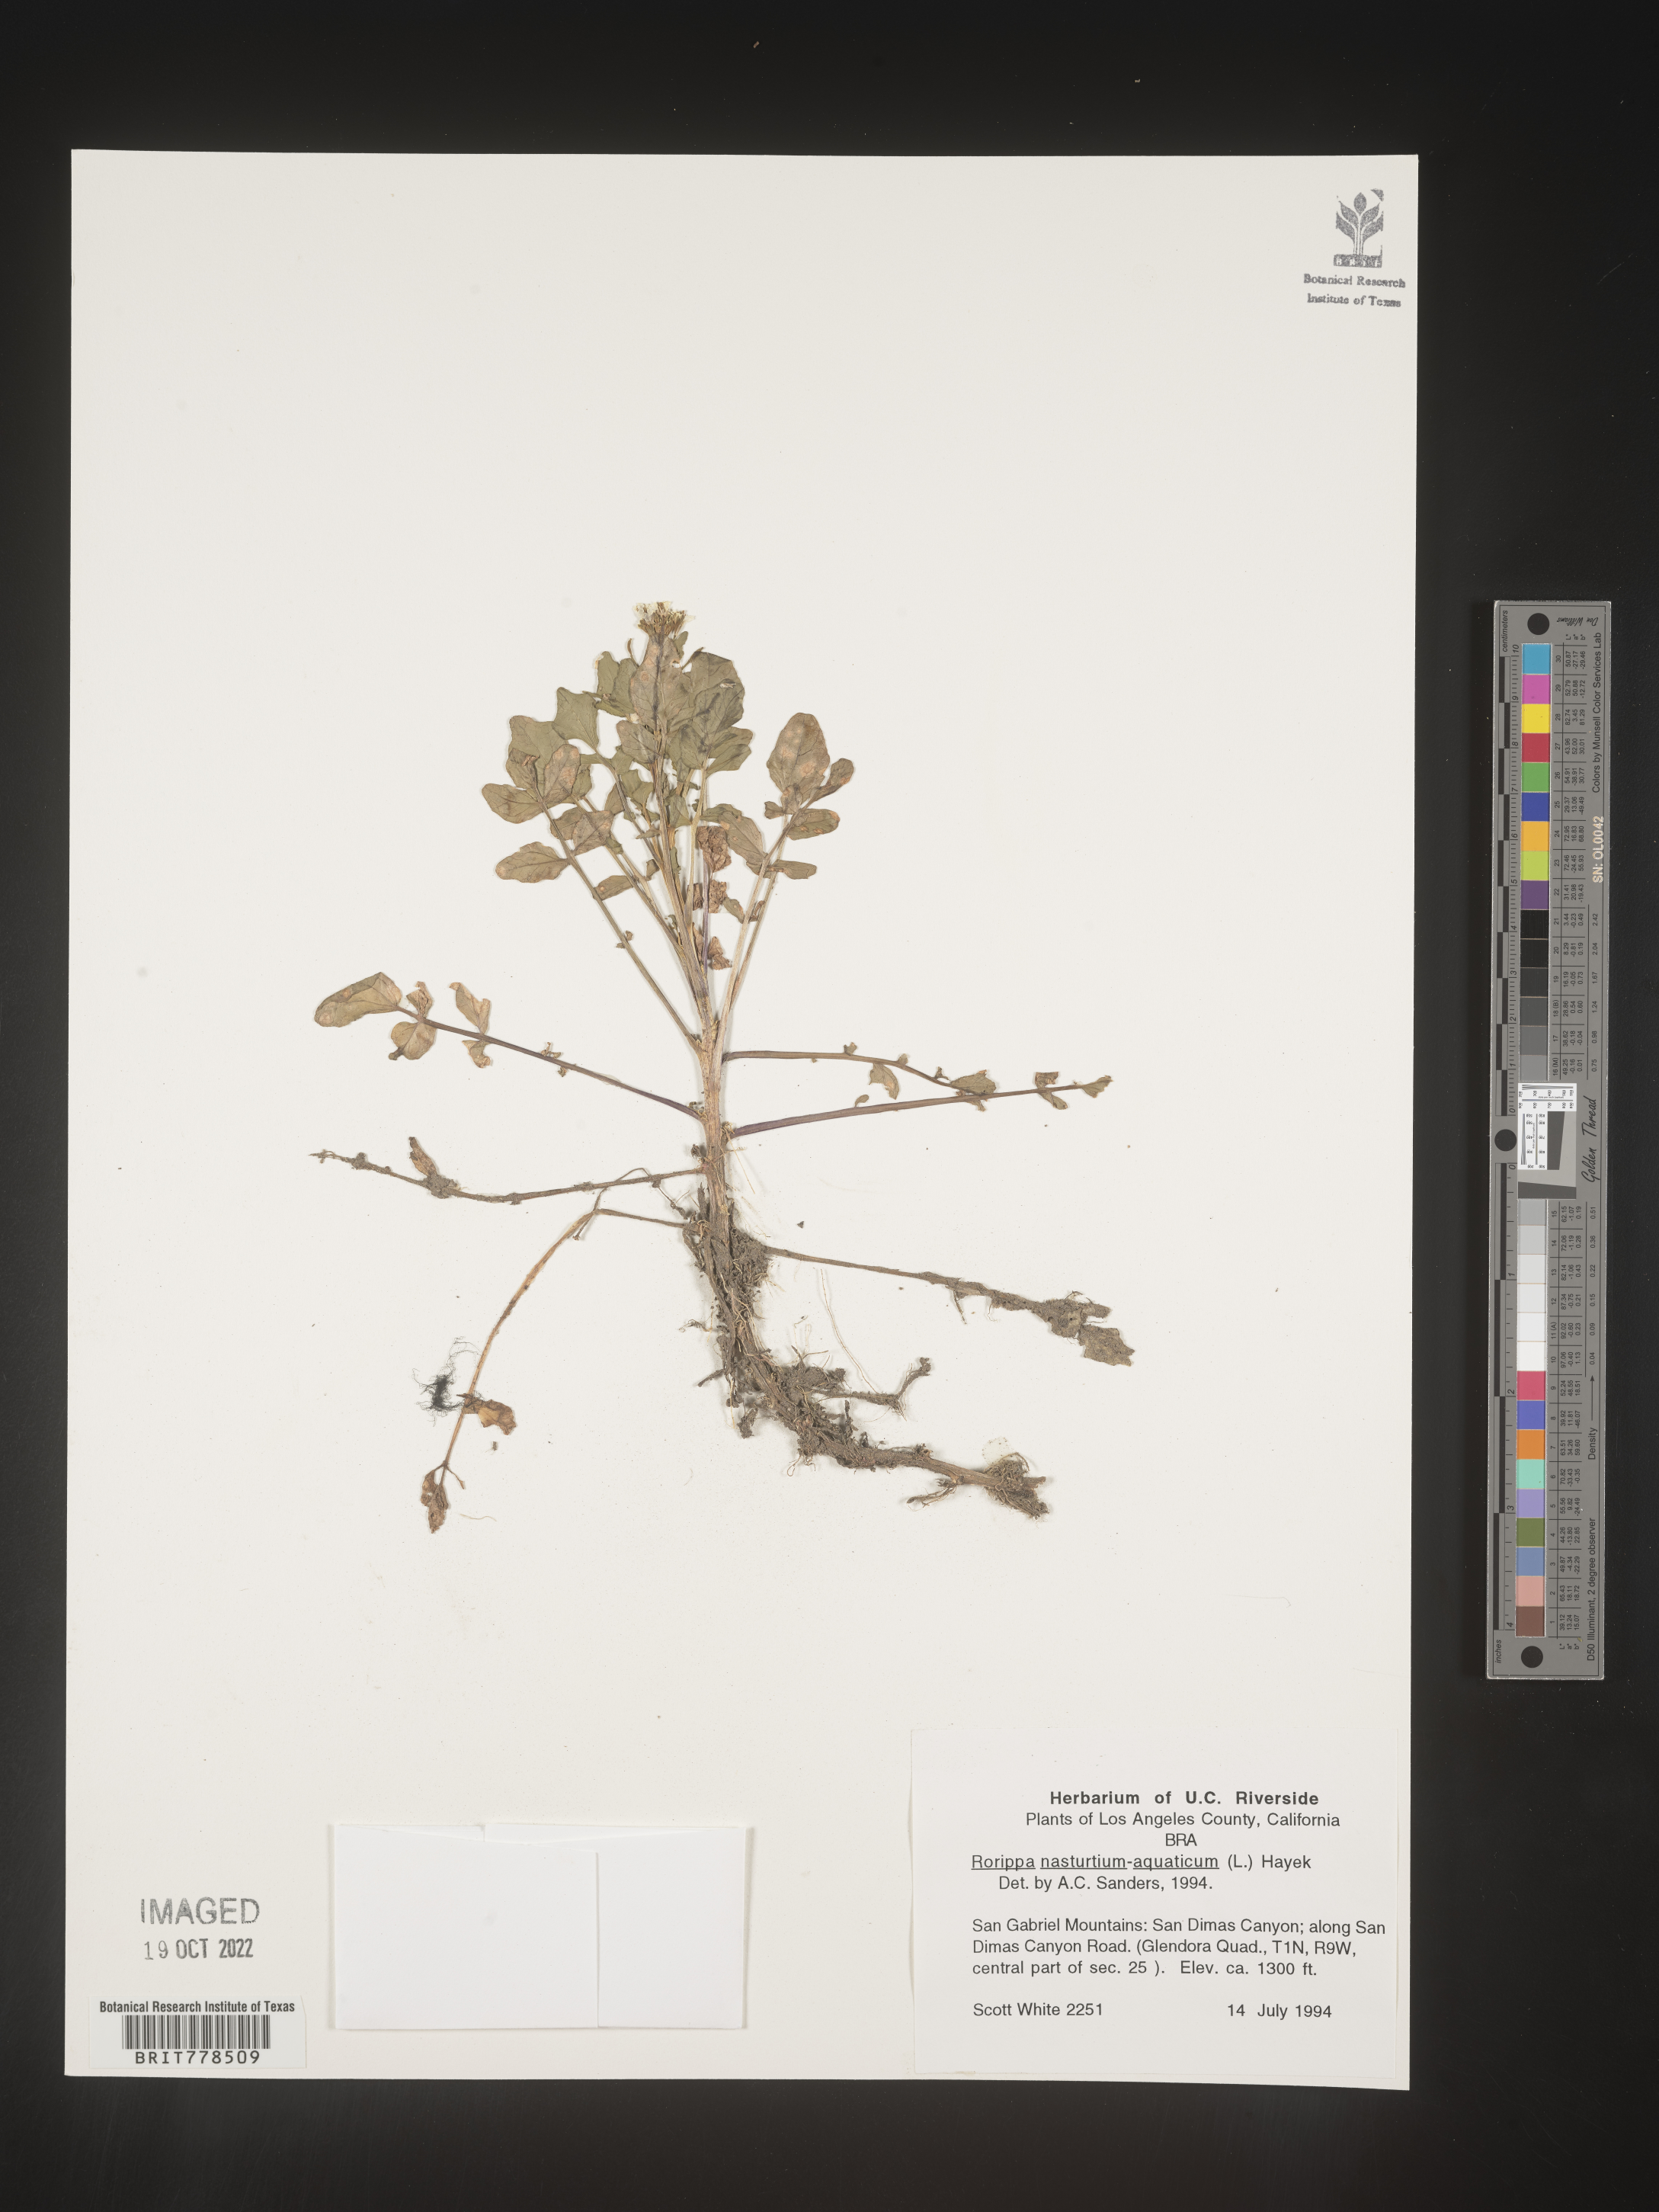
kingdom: Plantae
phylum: Tracheophyta
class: Magnoliopsida
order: Brassicales
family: Brassicaceae
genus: Nasturtium
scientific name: Nasturtium officinale
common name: Watercress
